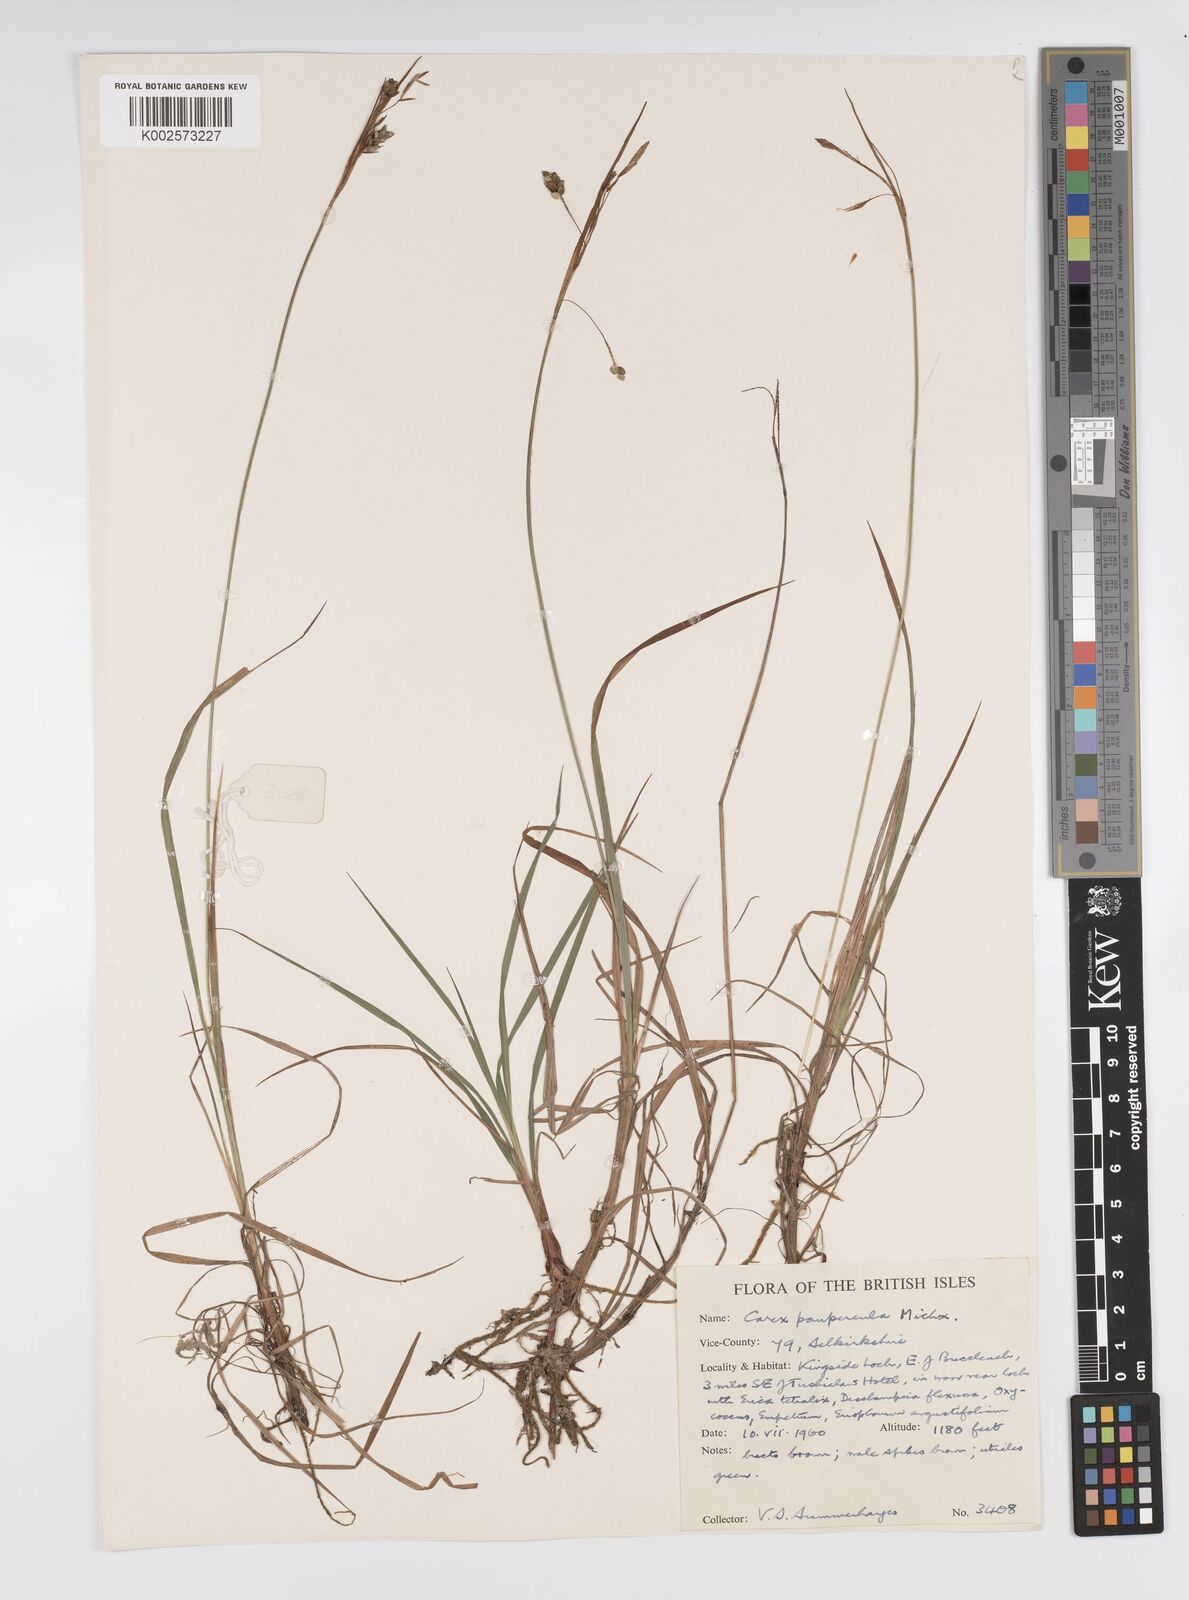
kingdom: Plantae
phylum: Tracheophyta
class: Liliopsida
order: Poales
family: Cyperaceae
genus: Carex
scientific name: Carex magellanica
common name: Bog sedge
